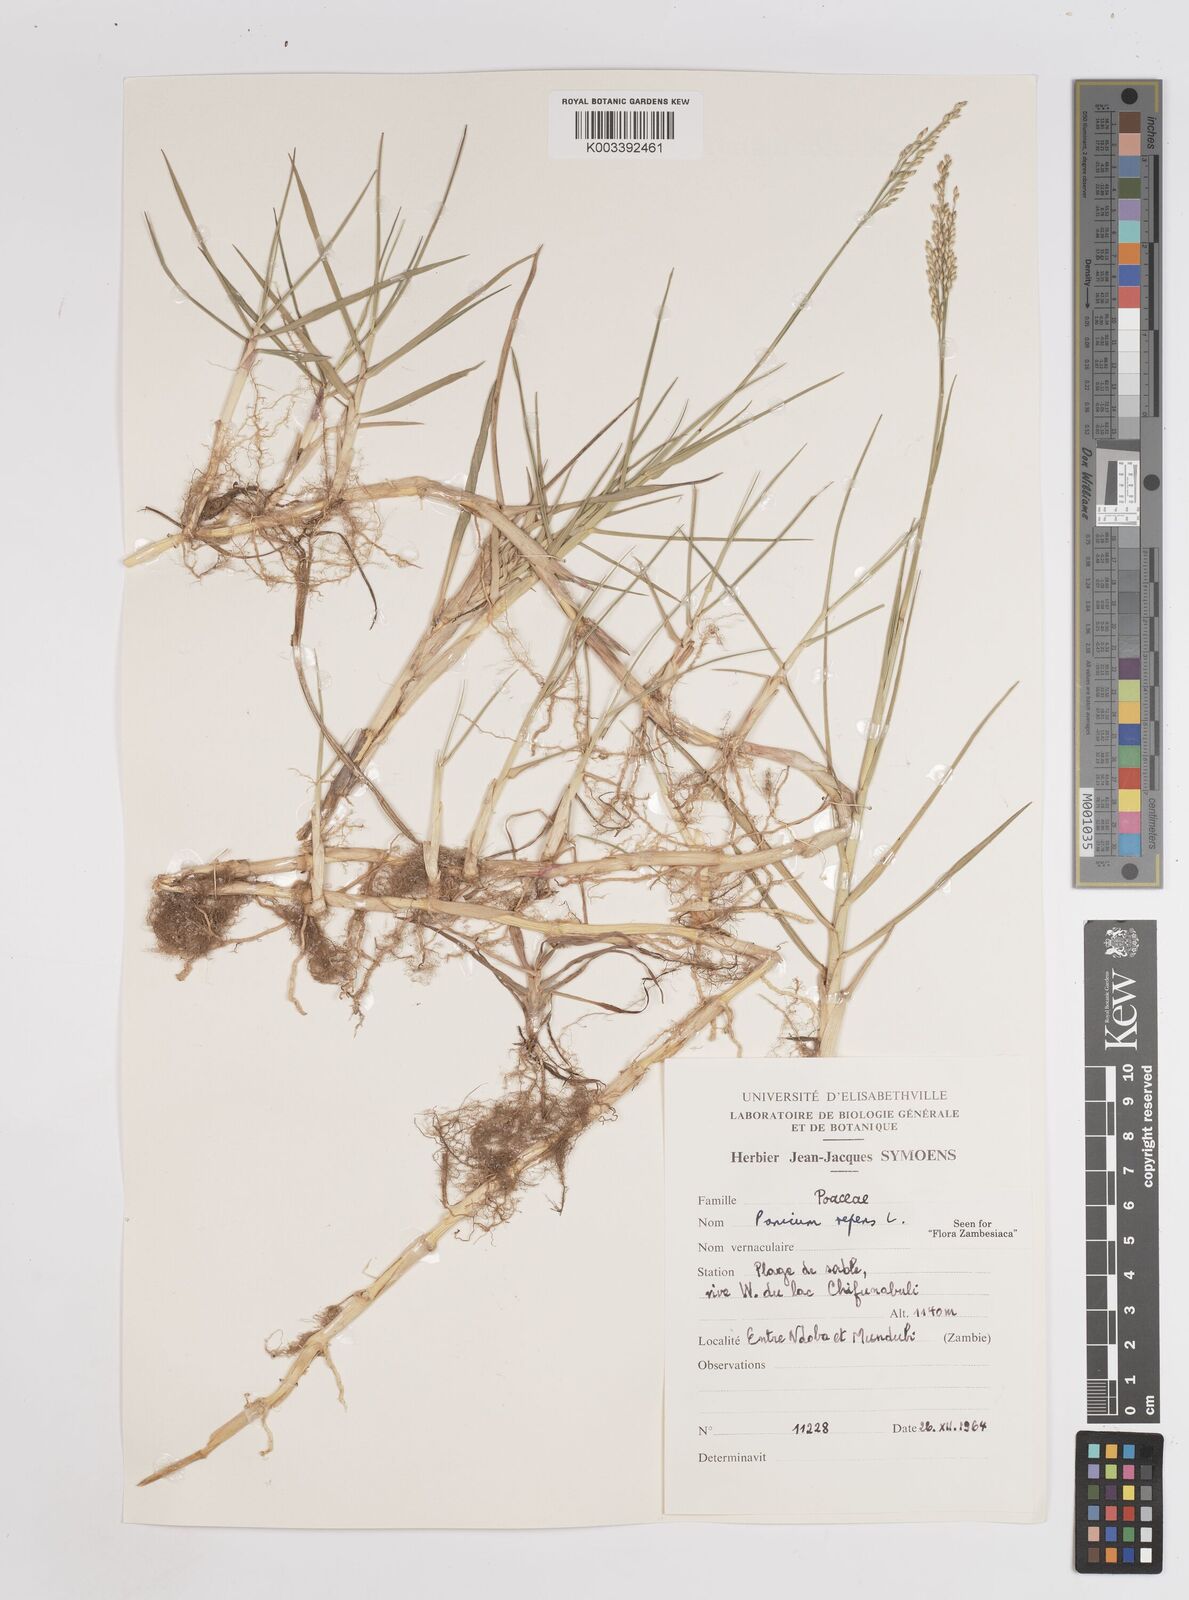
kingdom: Plantae
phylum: Tracheophyta
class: Liliopsida
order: Poales
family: Poaceae
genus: Panicum
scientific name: Panicum repens
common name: Torpedo grass
